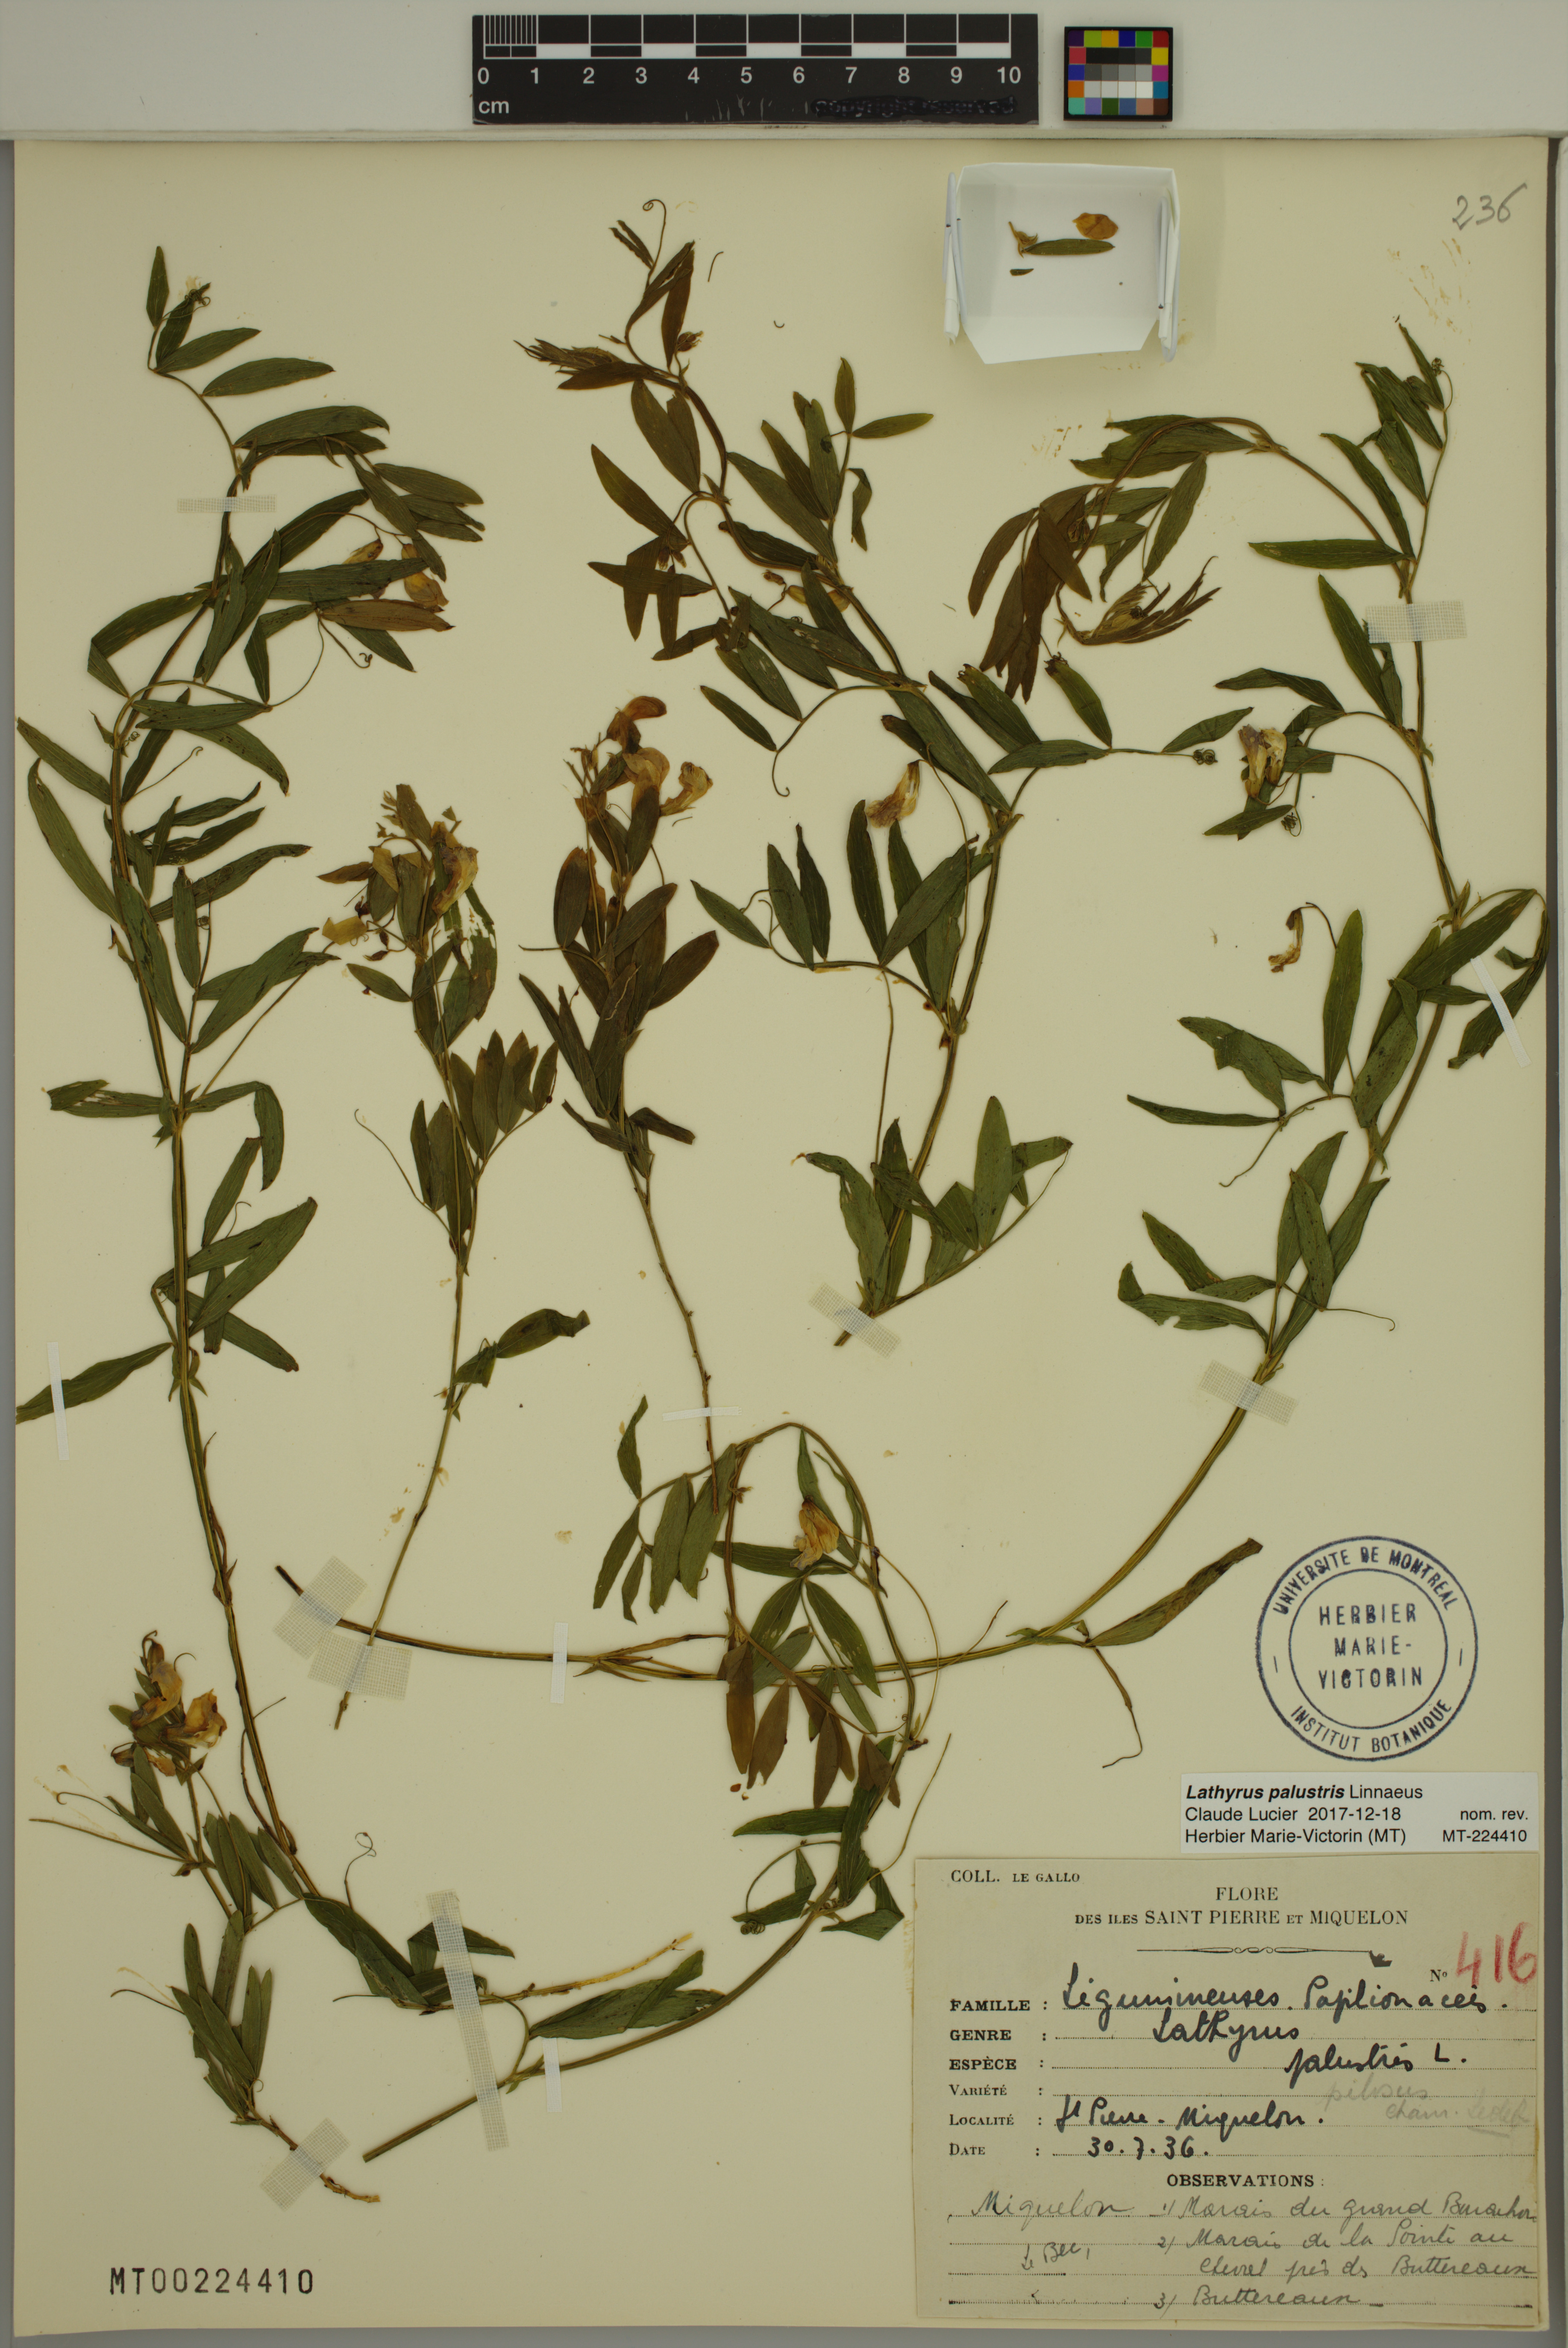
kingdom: Plantae
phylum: Tracheophyta
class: Magnoliopsida
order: Fabales
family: Fabaceae
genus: Lathyrus
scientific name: Lathyrus palustris
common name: Marsh pea
